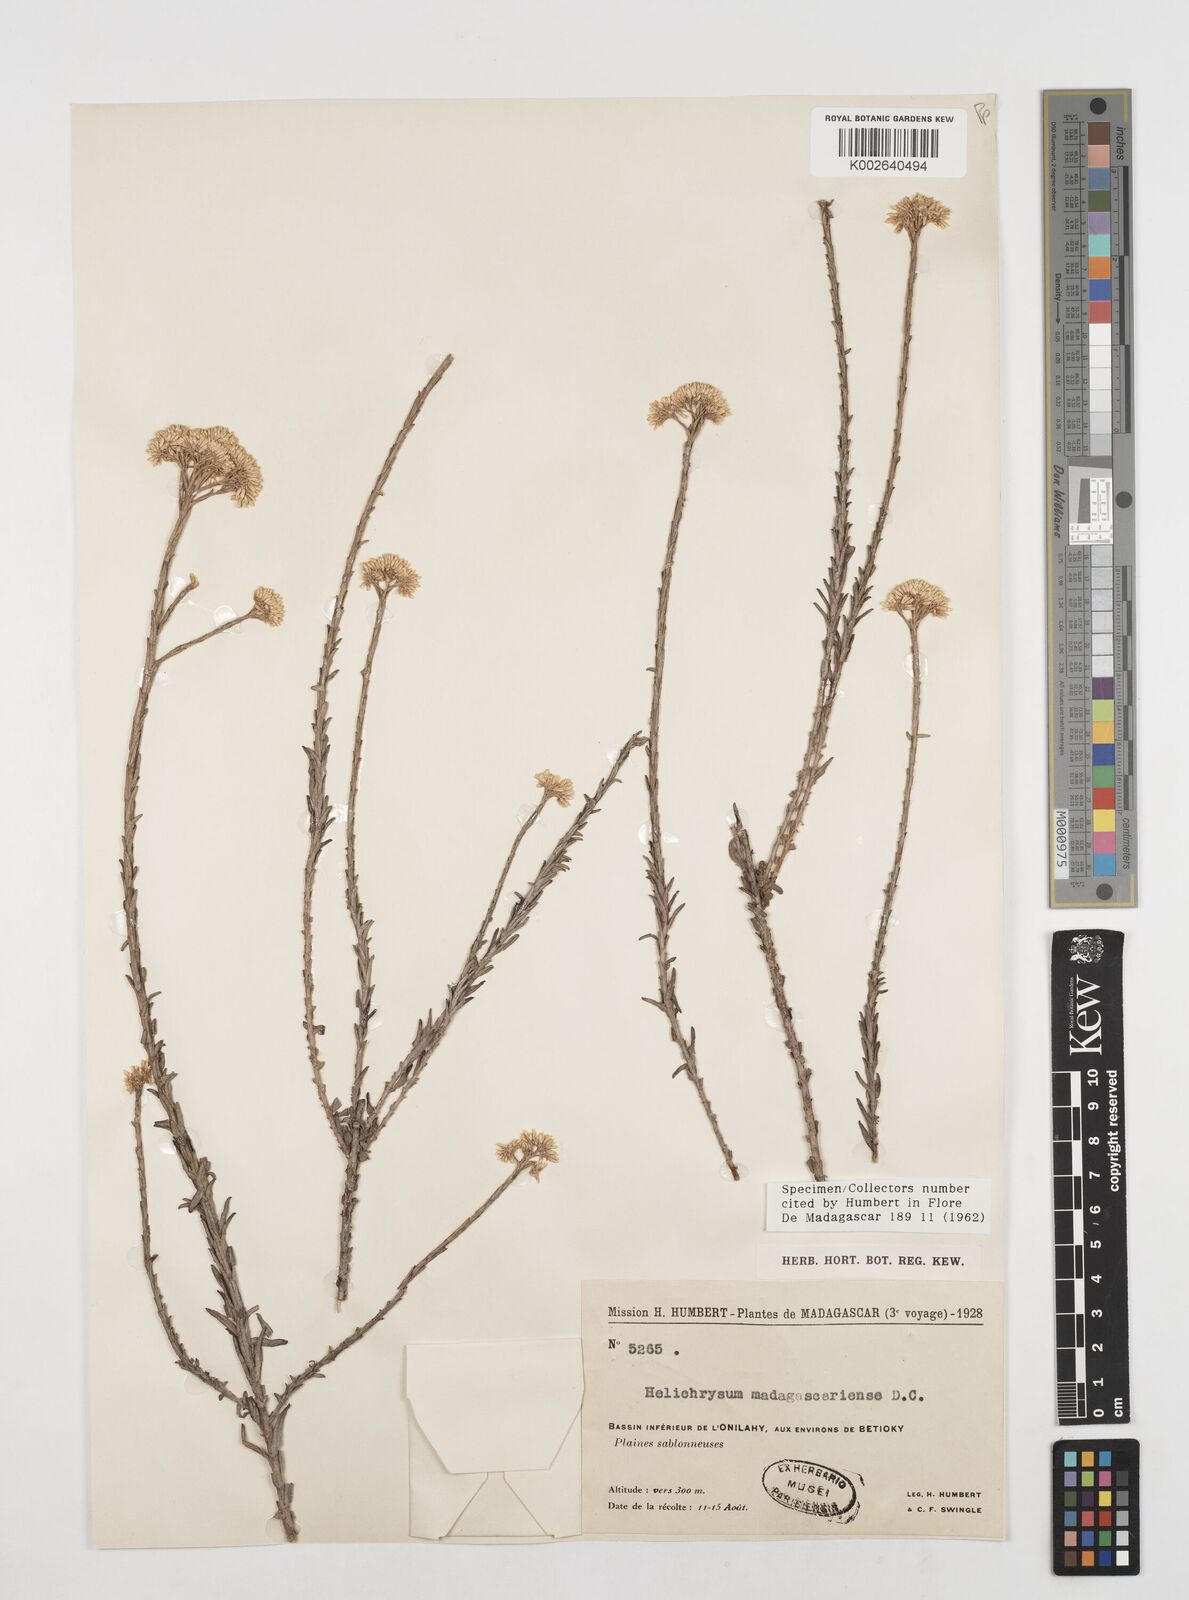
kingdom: Plantae
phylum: Tracheophyta
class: Magnoliopsida
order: Asterales
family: Asteraceae
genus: Helichrysum
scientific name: Helichrysum madagascariense
